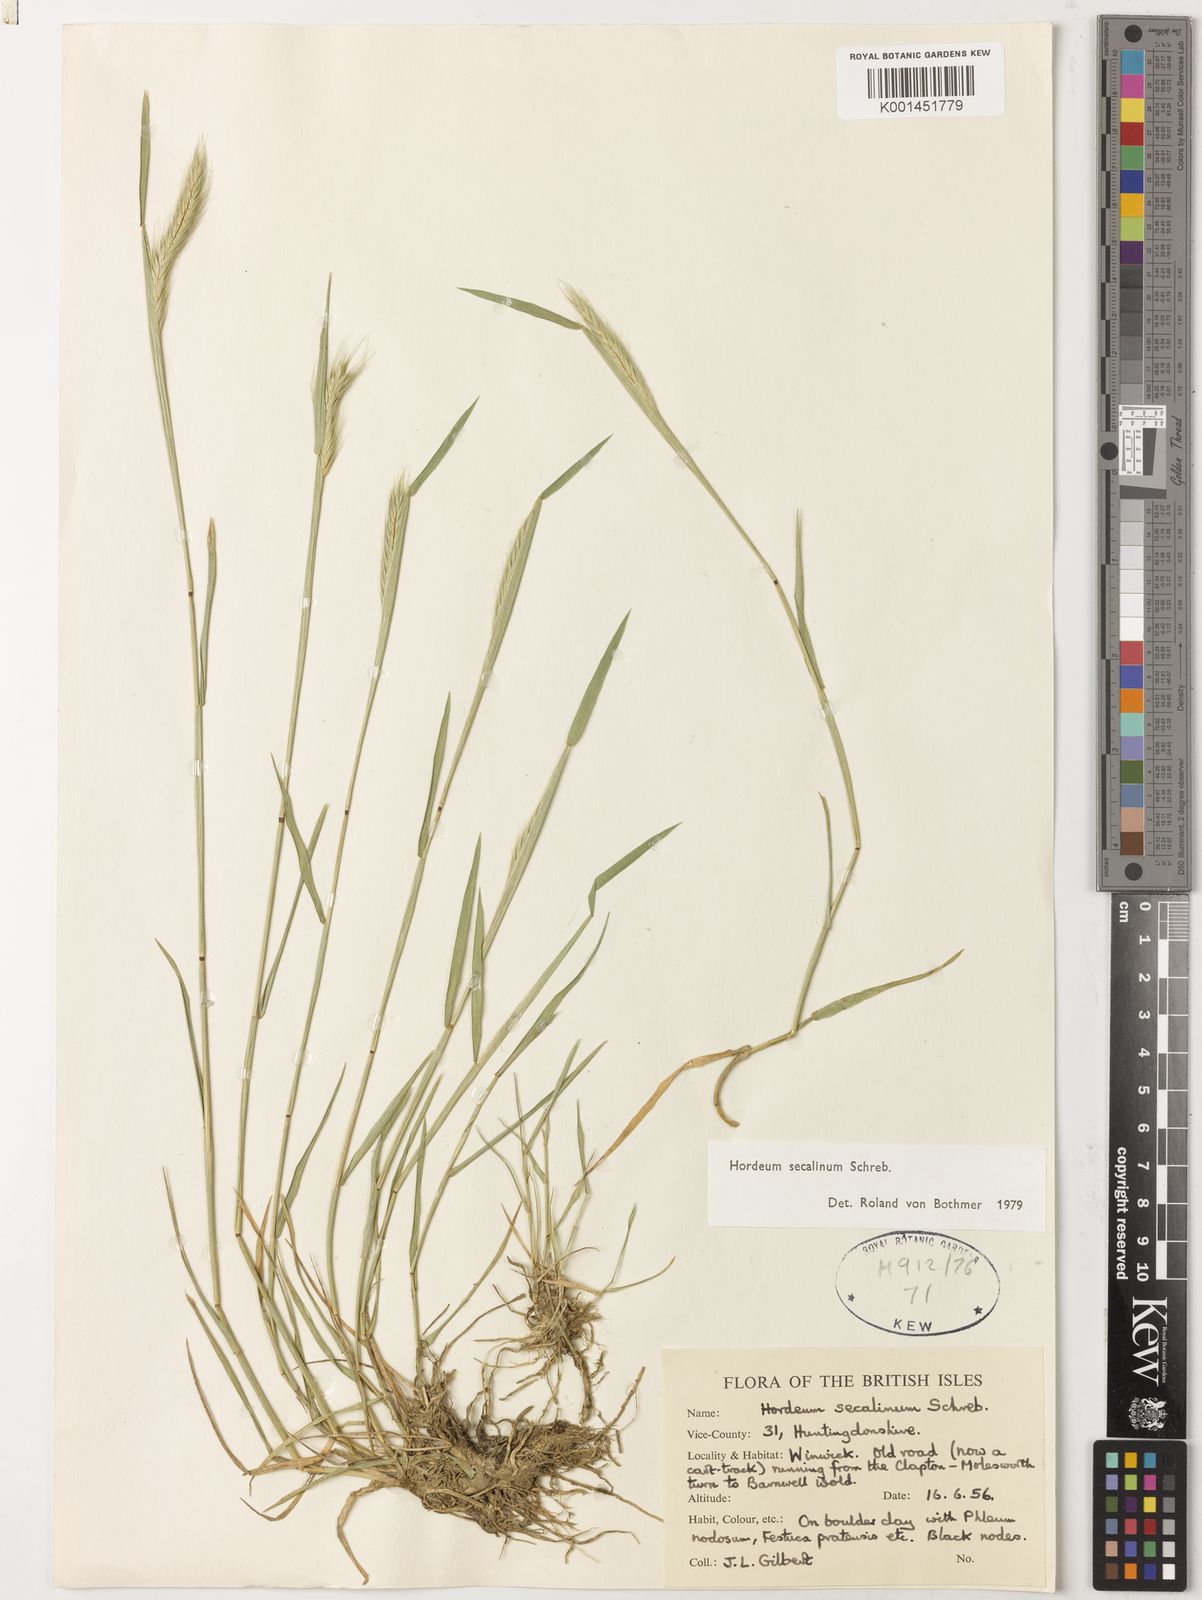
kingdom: Plantae
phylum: Tracheophyta
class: Liliopsida
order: Poales
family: Poaceae
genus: Hordeum
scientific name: Hordeum secalinum
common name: Meadow barley
